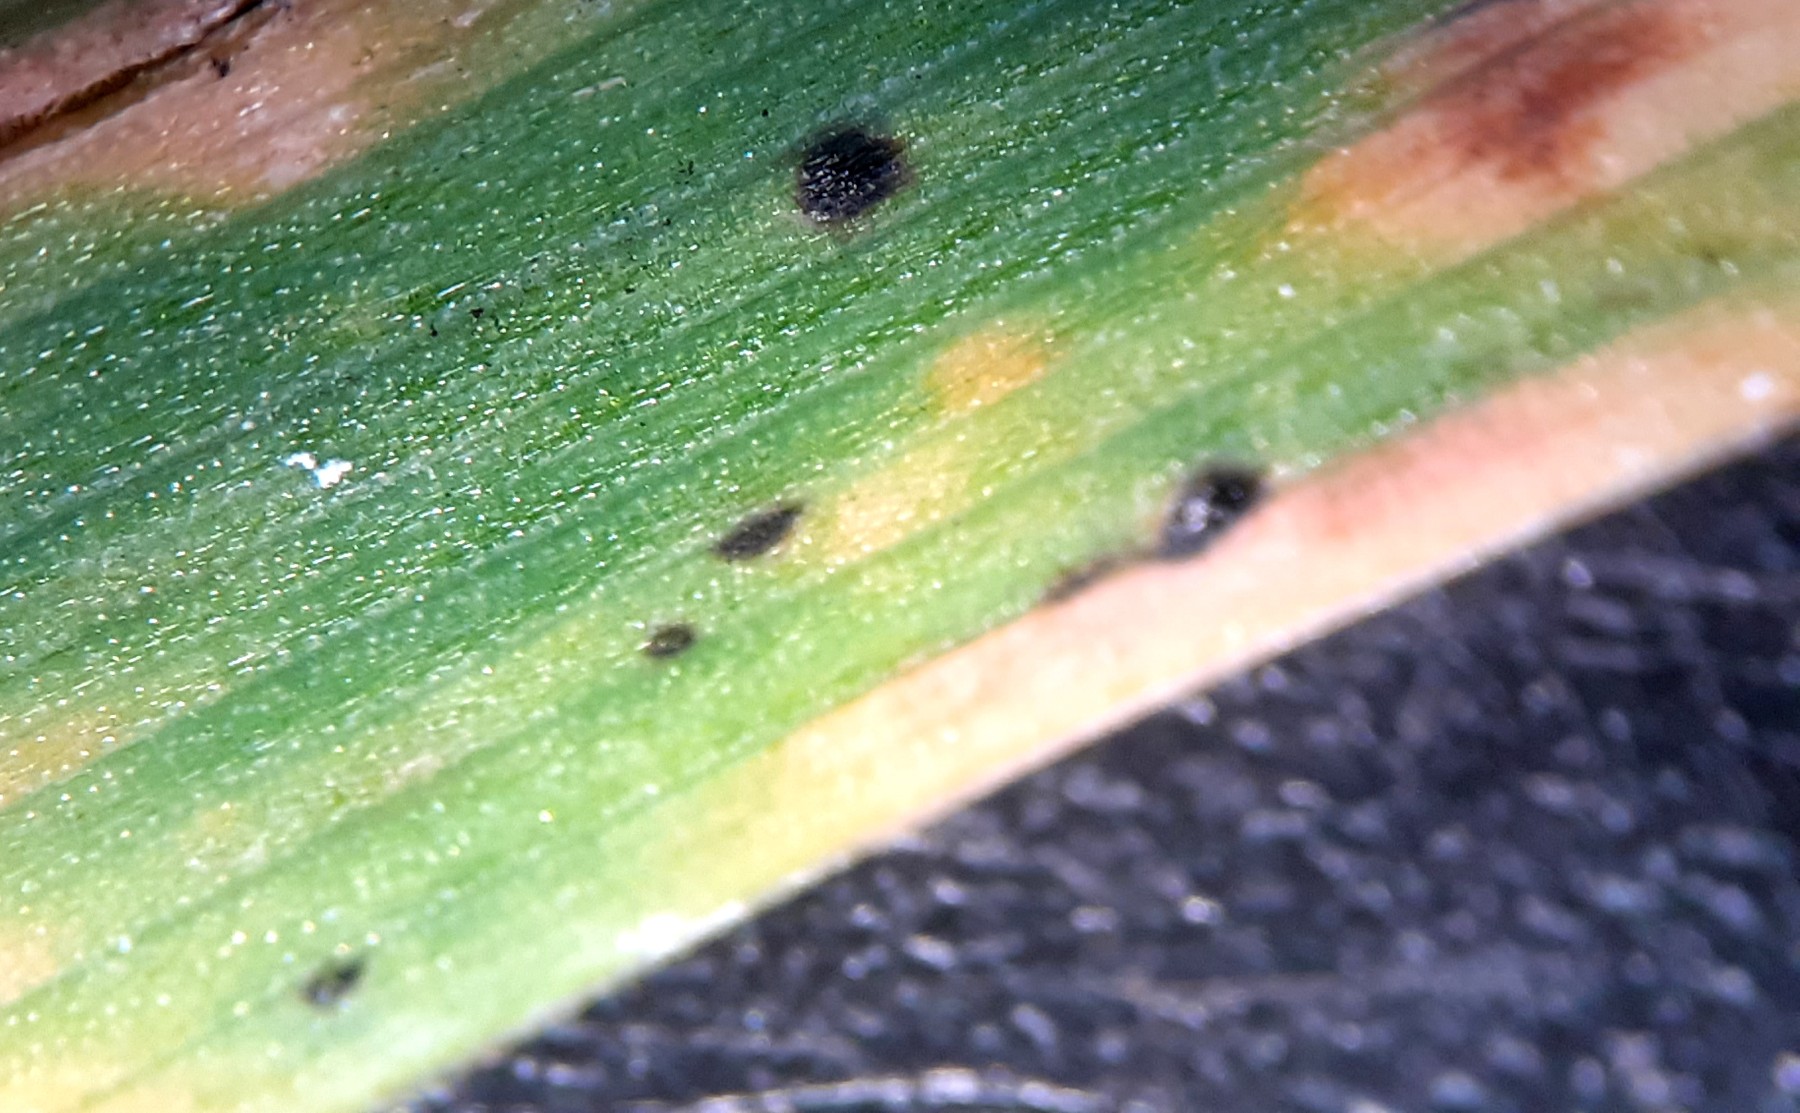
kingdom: Fungi
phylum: Ascomycota
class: Sordariomycetes
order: Phyllachorales
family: Phyllachoraceae
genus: Phyllachora
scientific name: Phyllachora dactylidis
